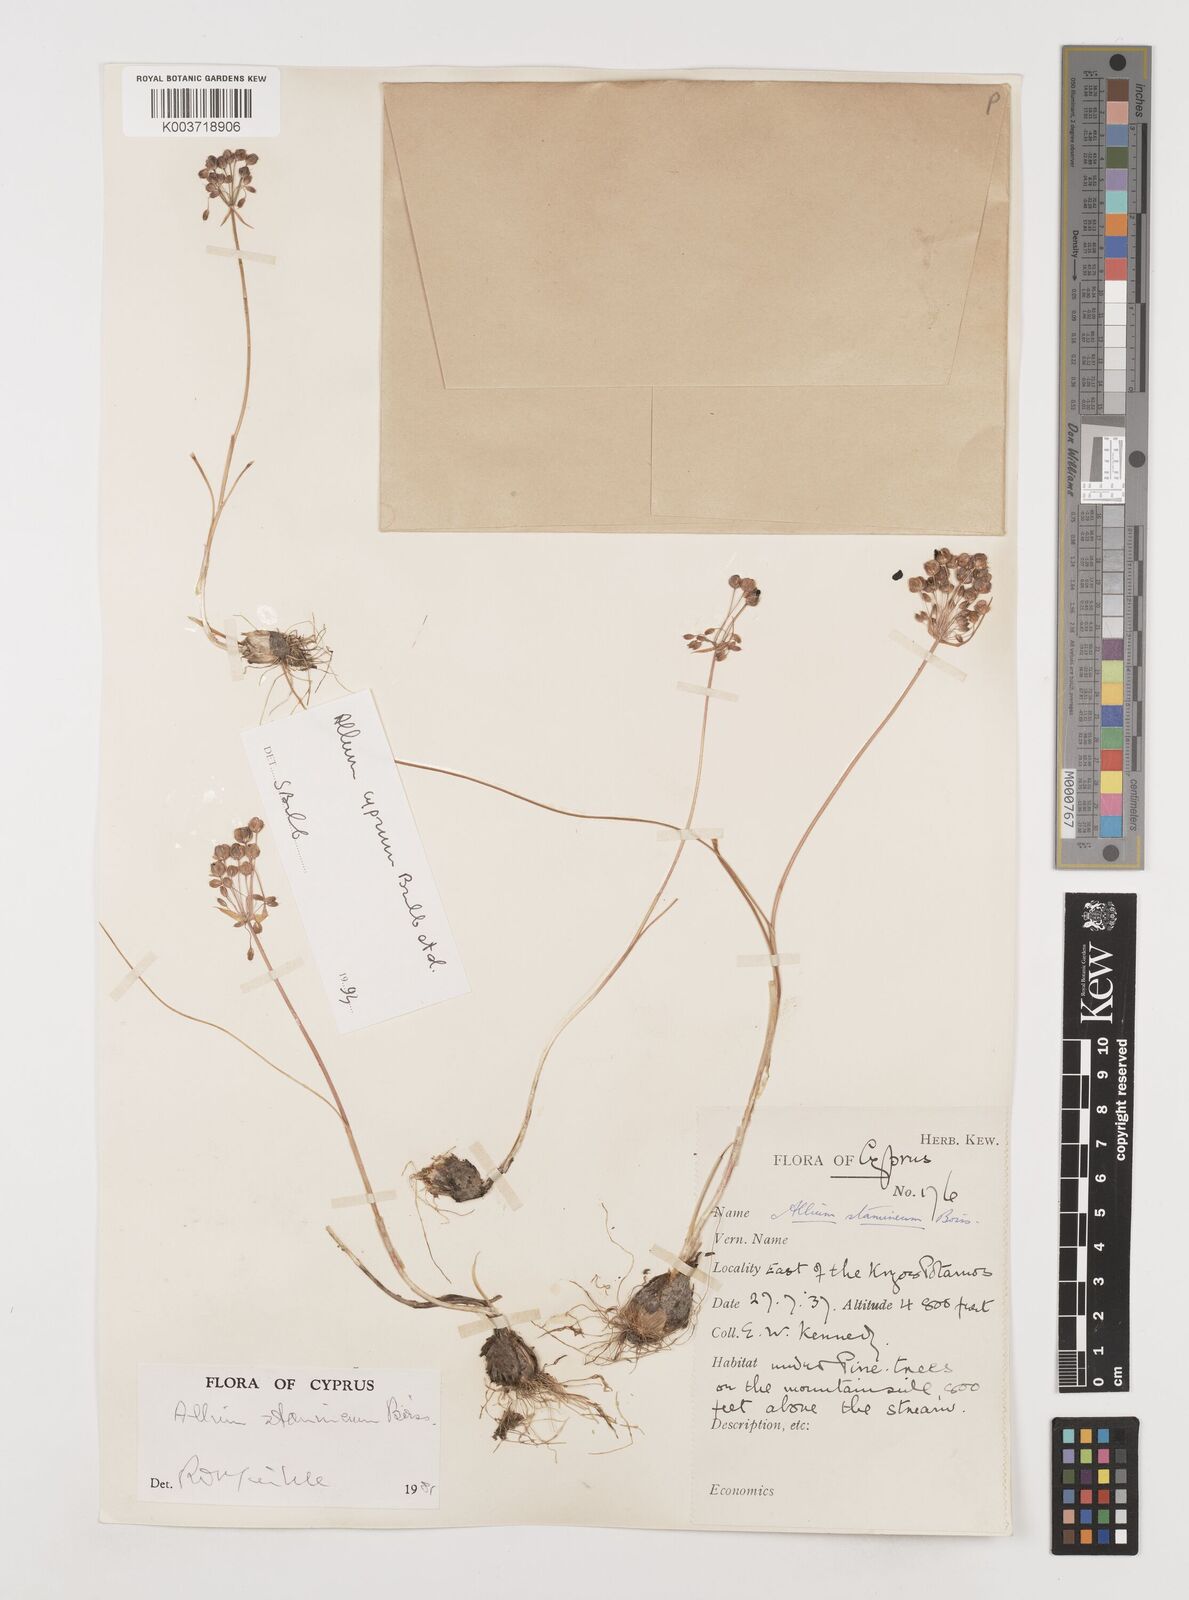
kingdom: Plantae
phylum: Tracheophyta
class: Liliopsida
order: Asparagales
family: Amaryllidaceae
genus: Allium
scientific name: Allium stamineum
